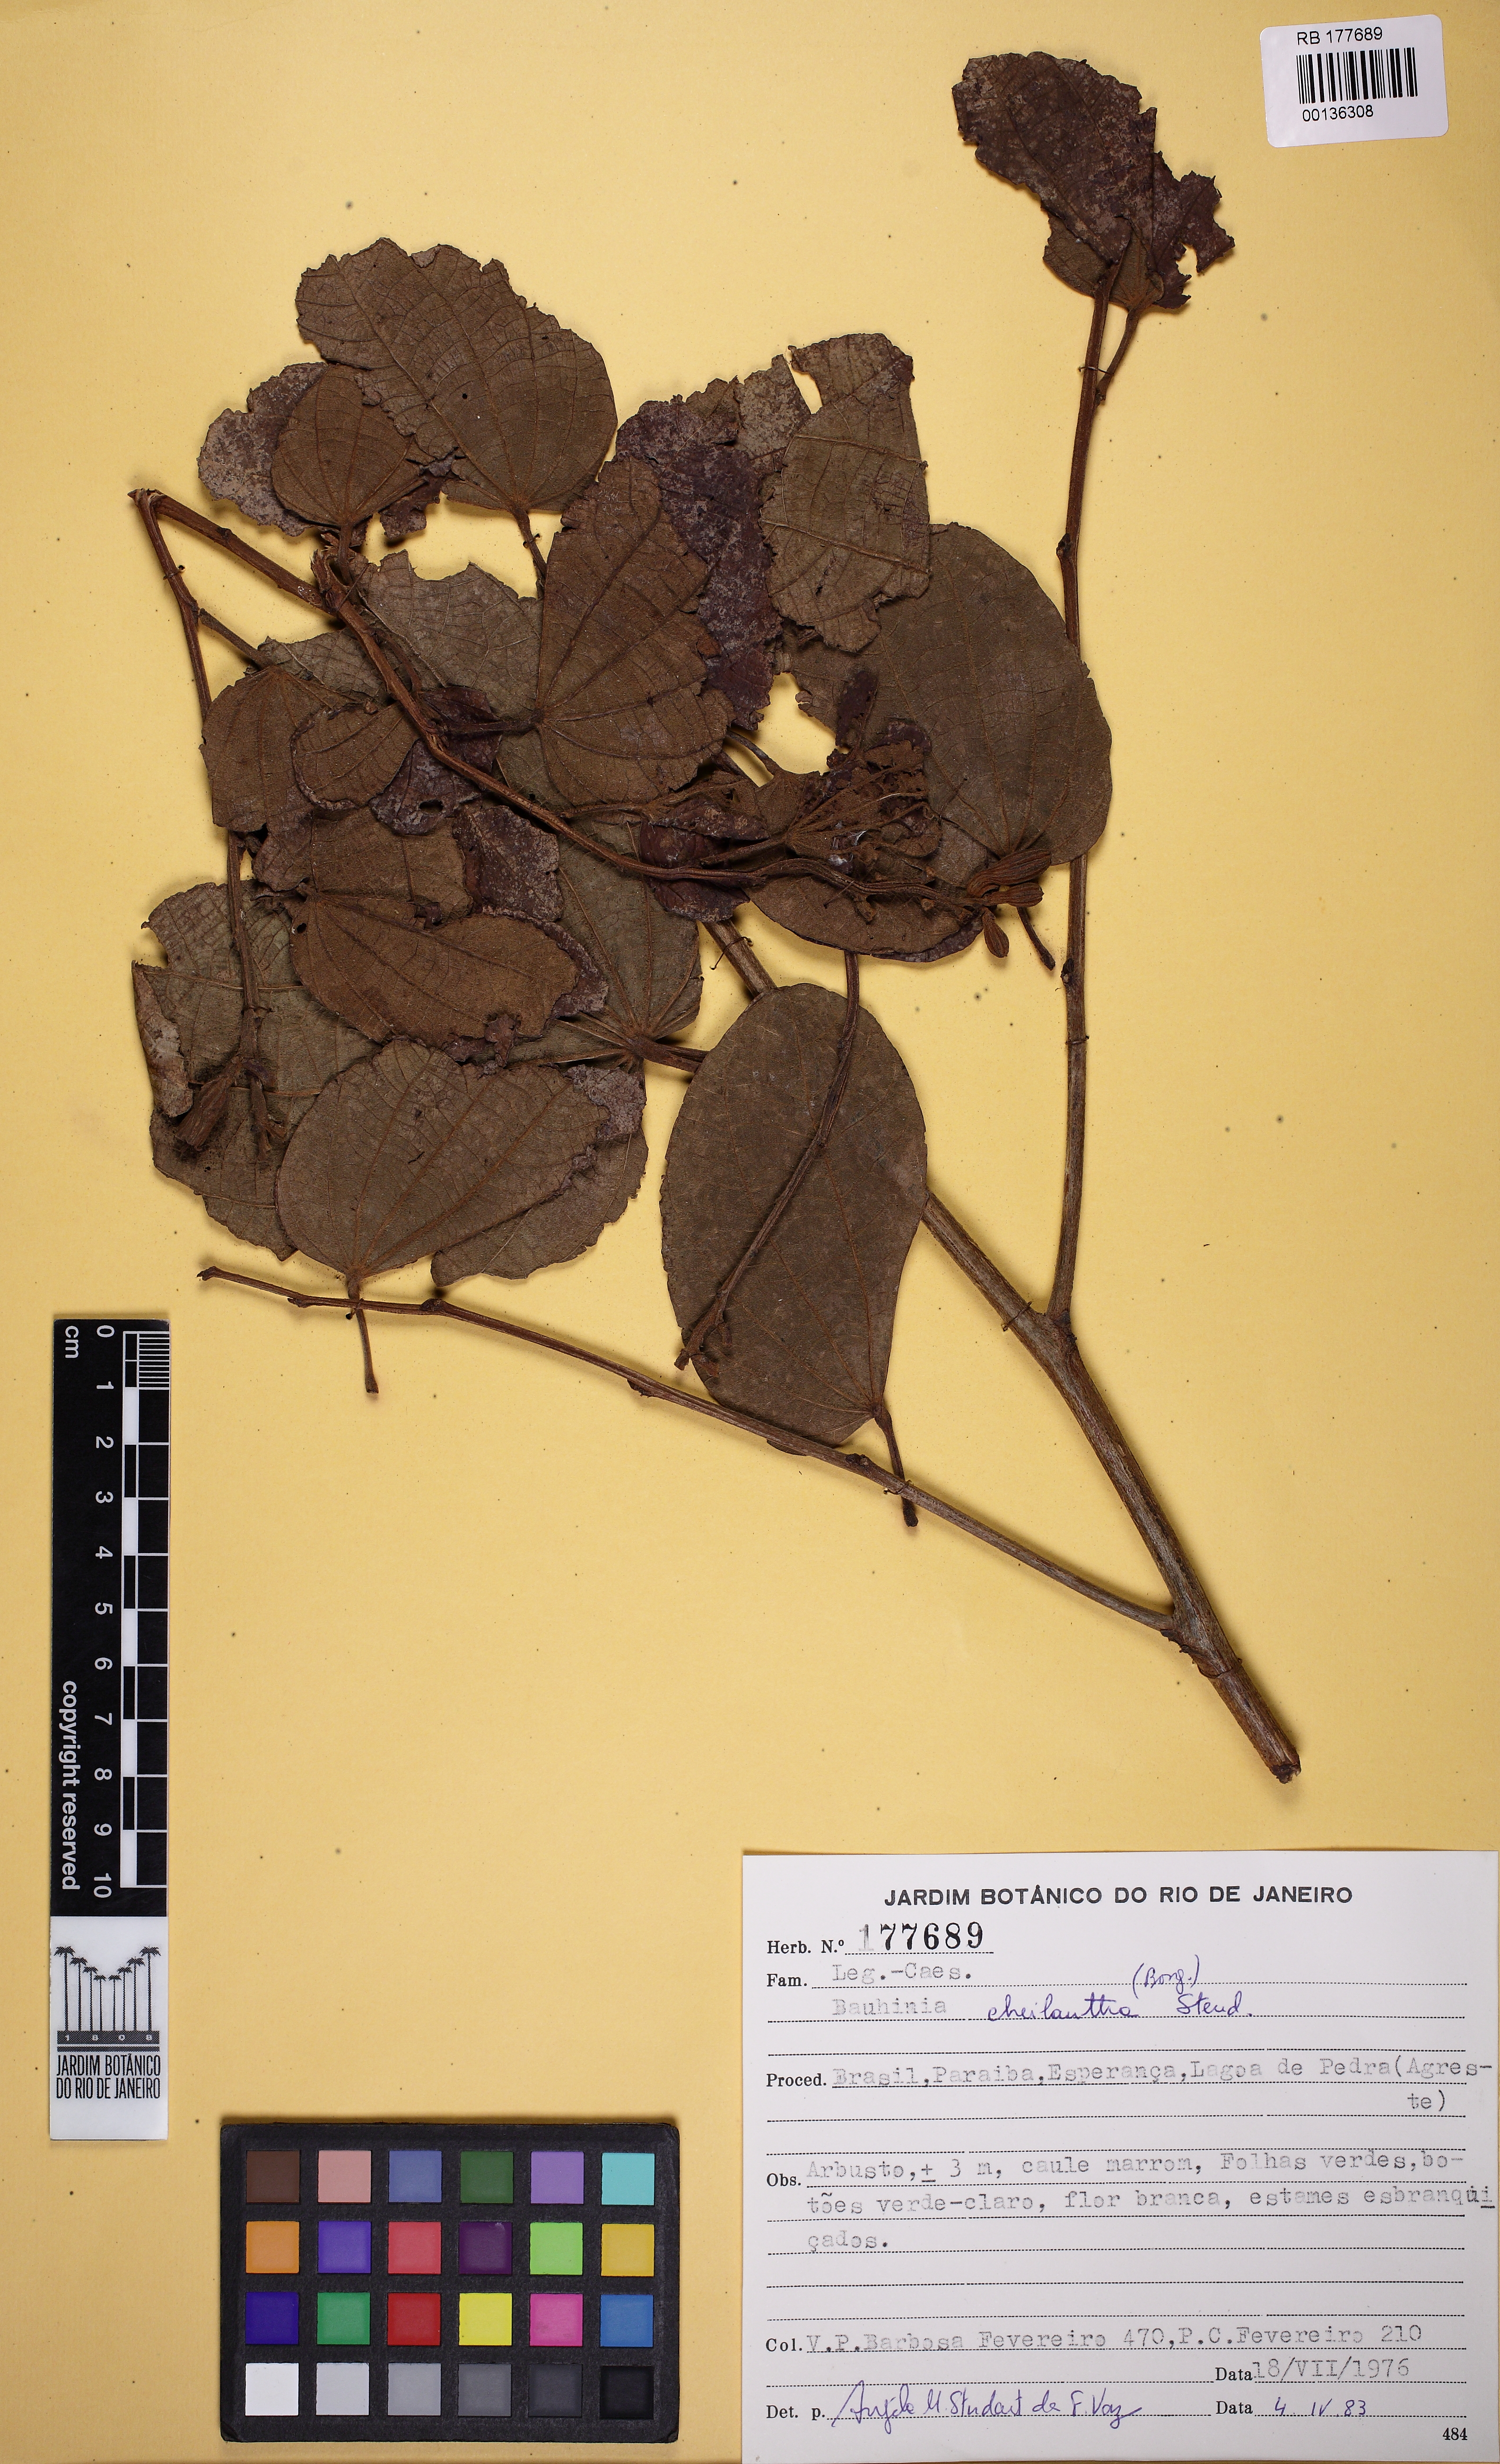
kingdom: Plantae
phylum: Tracheophyta
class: Magnoliopsida
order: Fabales
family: Fabaceae
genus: Bauhinia
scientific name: Bauhinia cheilantha
